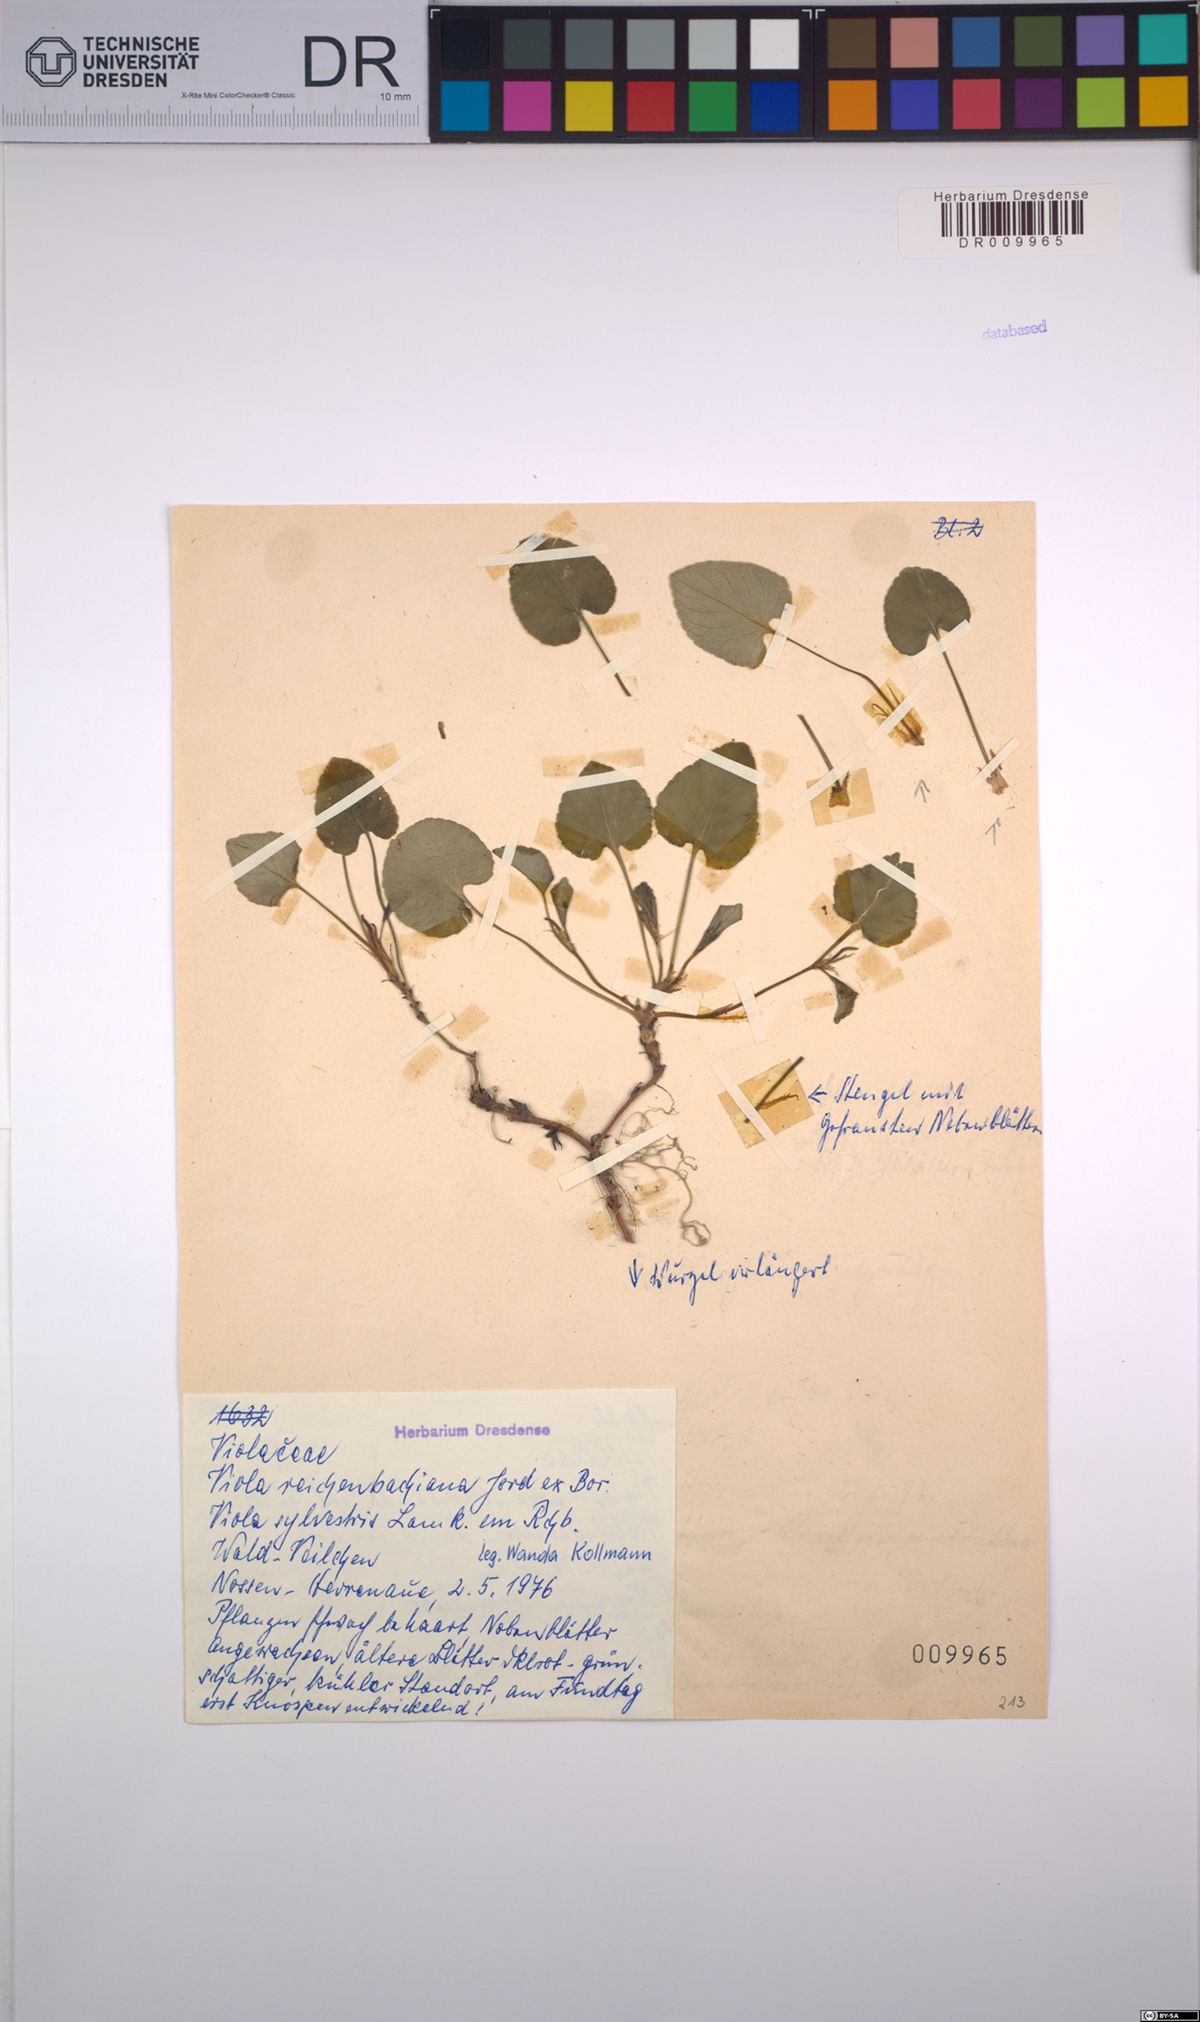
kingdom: Plantae
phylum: Tracheophyta
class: Magnoliopsida
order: Malpighiales
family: Violaceae
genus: Viola
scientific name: Viola reichenbachiana
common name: Early dog-violet
